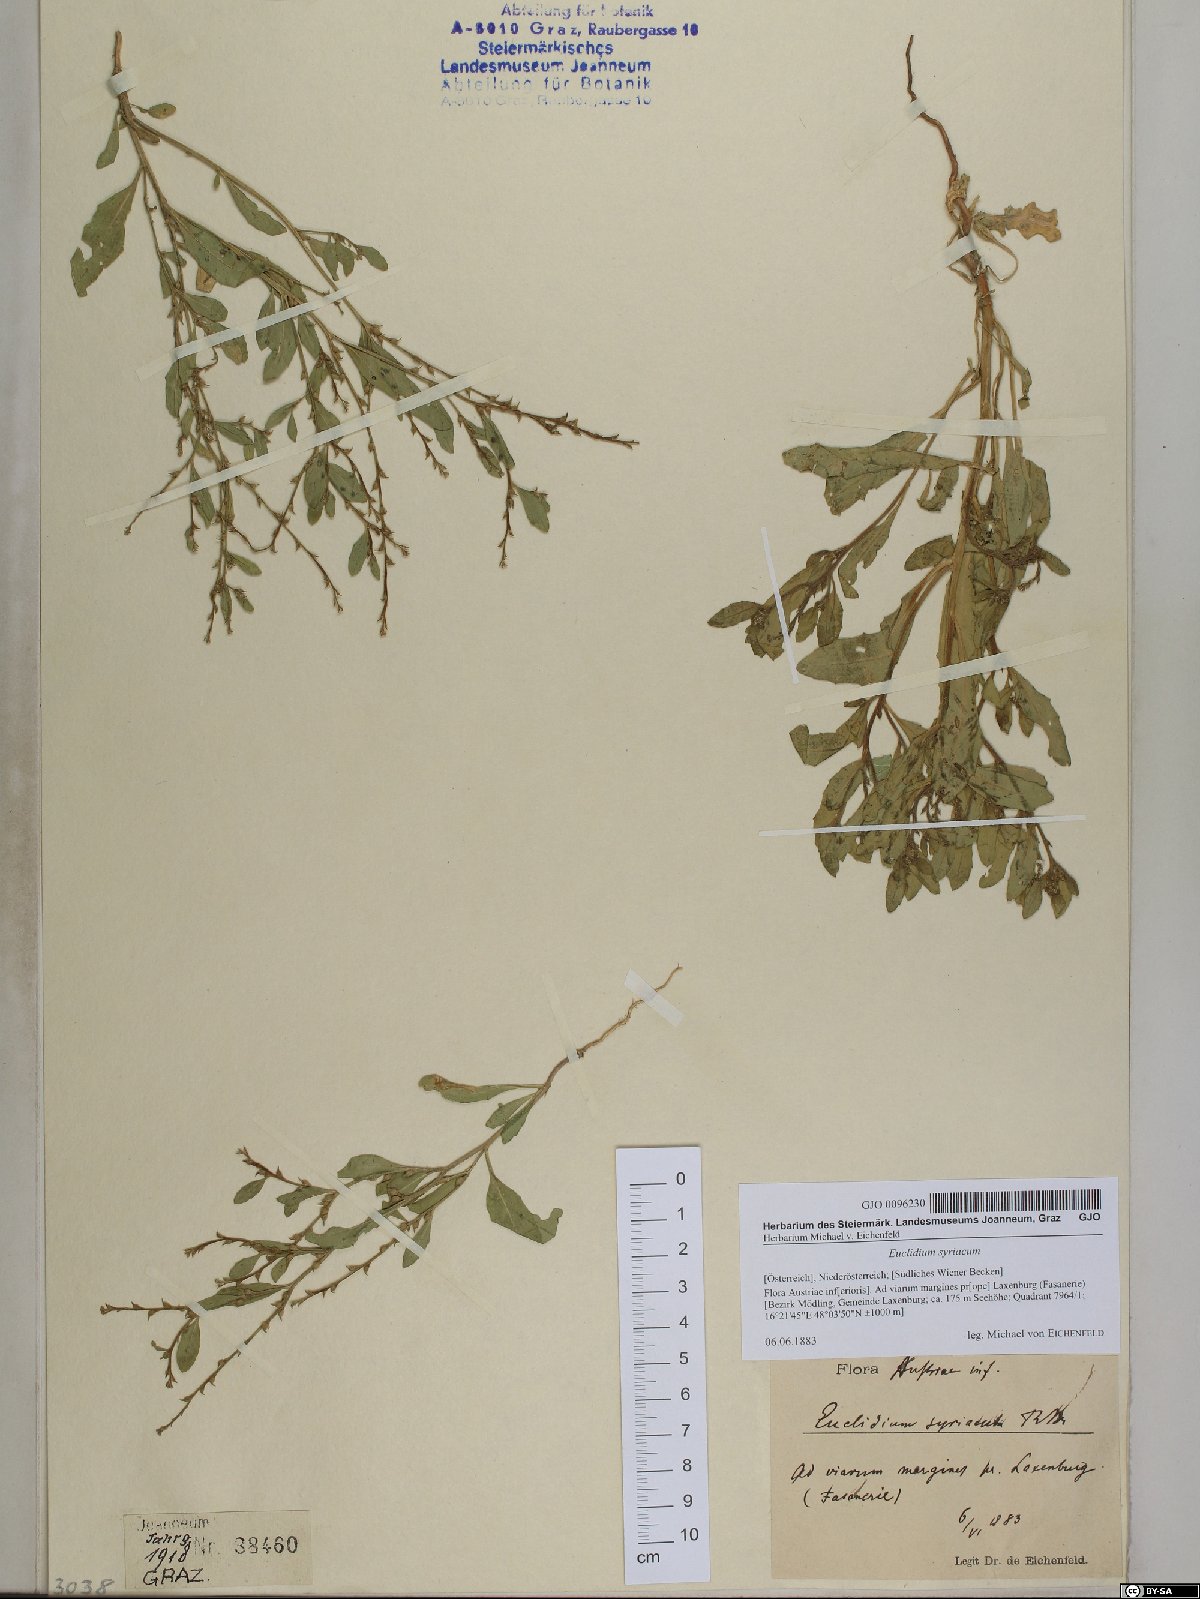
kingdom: Plantae
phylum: Tracheophyta
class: Magnoliopsida
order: Brassicales
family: Brassicaceae
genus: Euclidium
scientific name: Euclidium syriacum
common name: Syrian mustard
